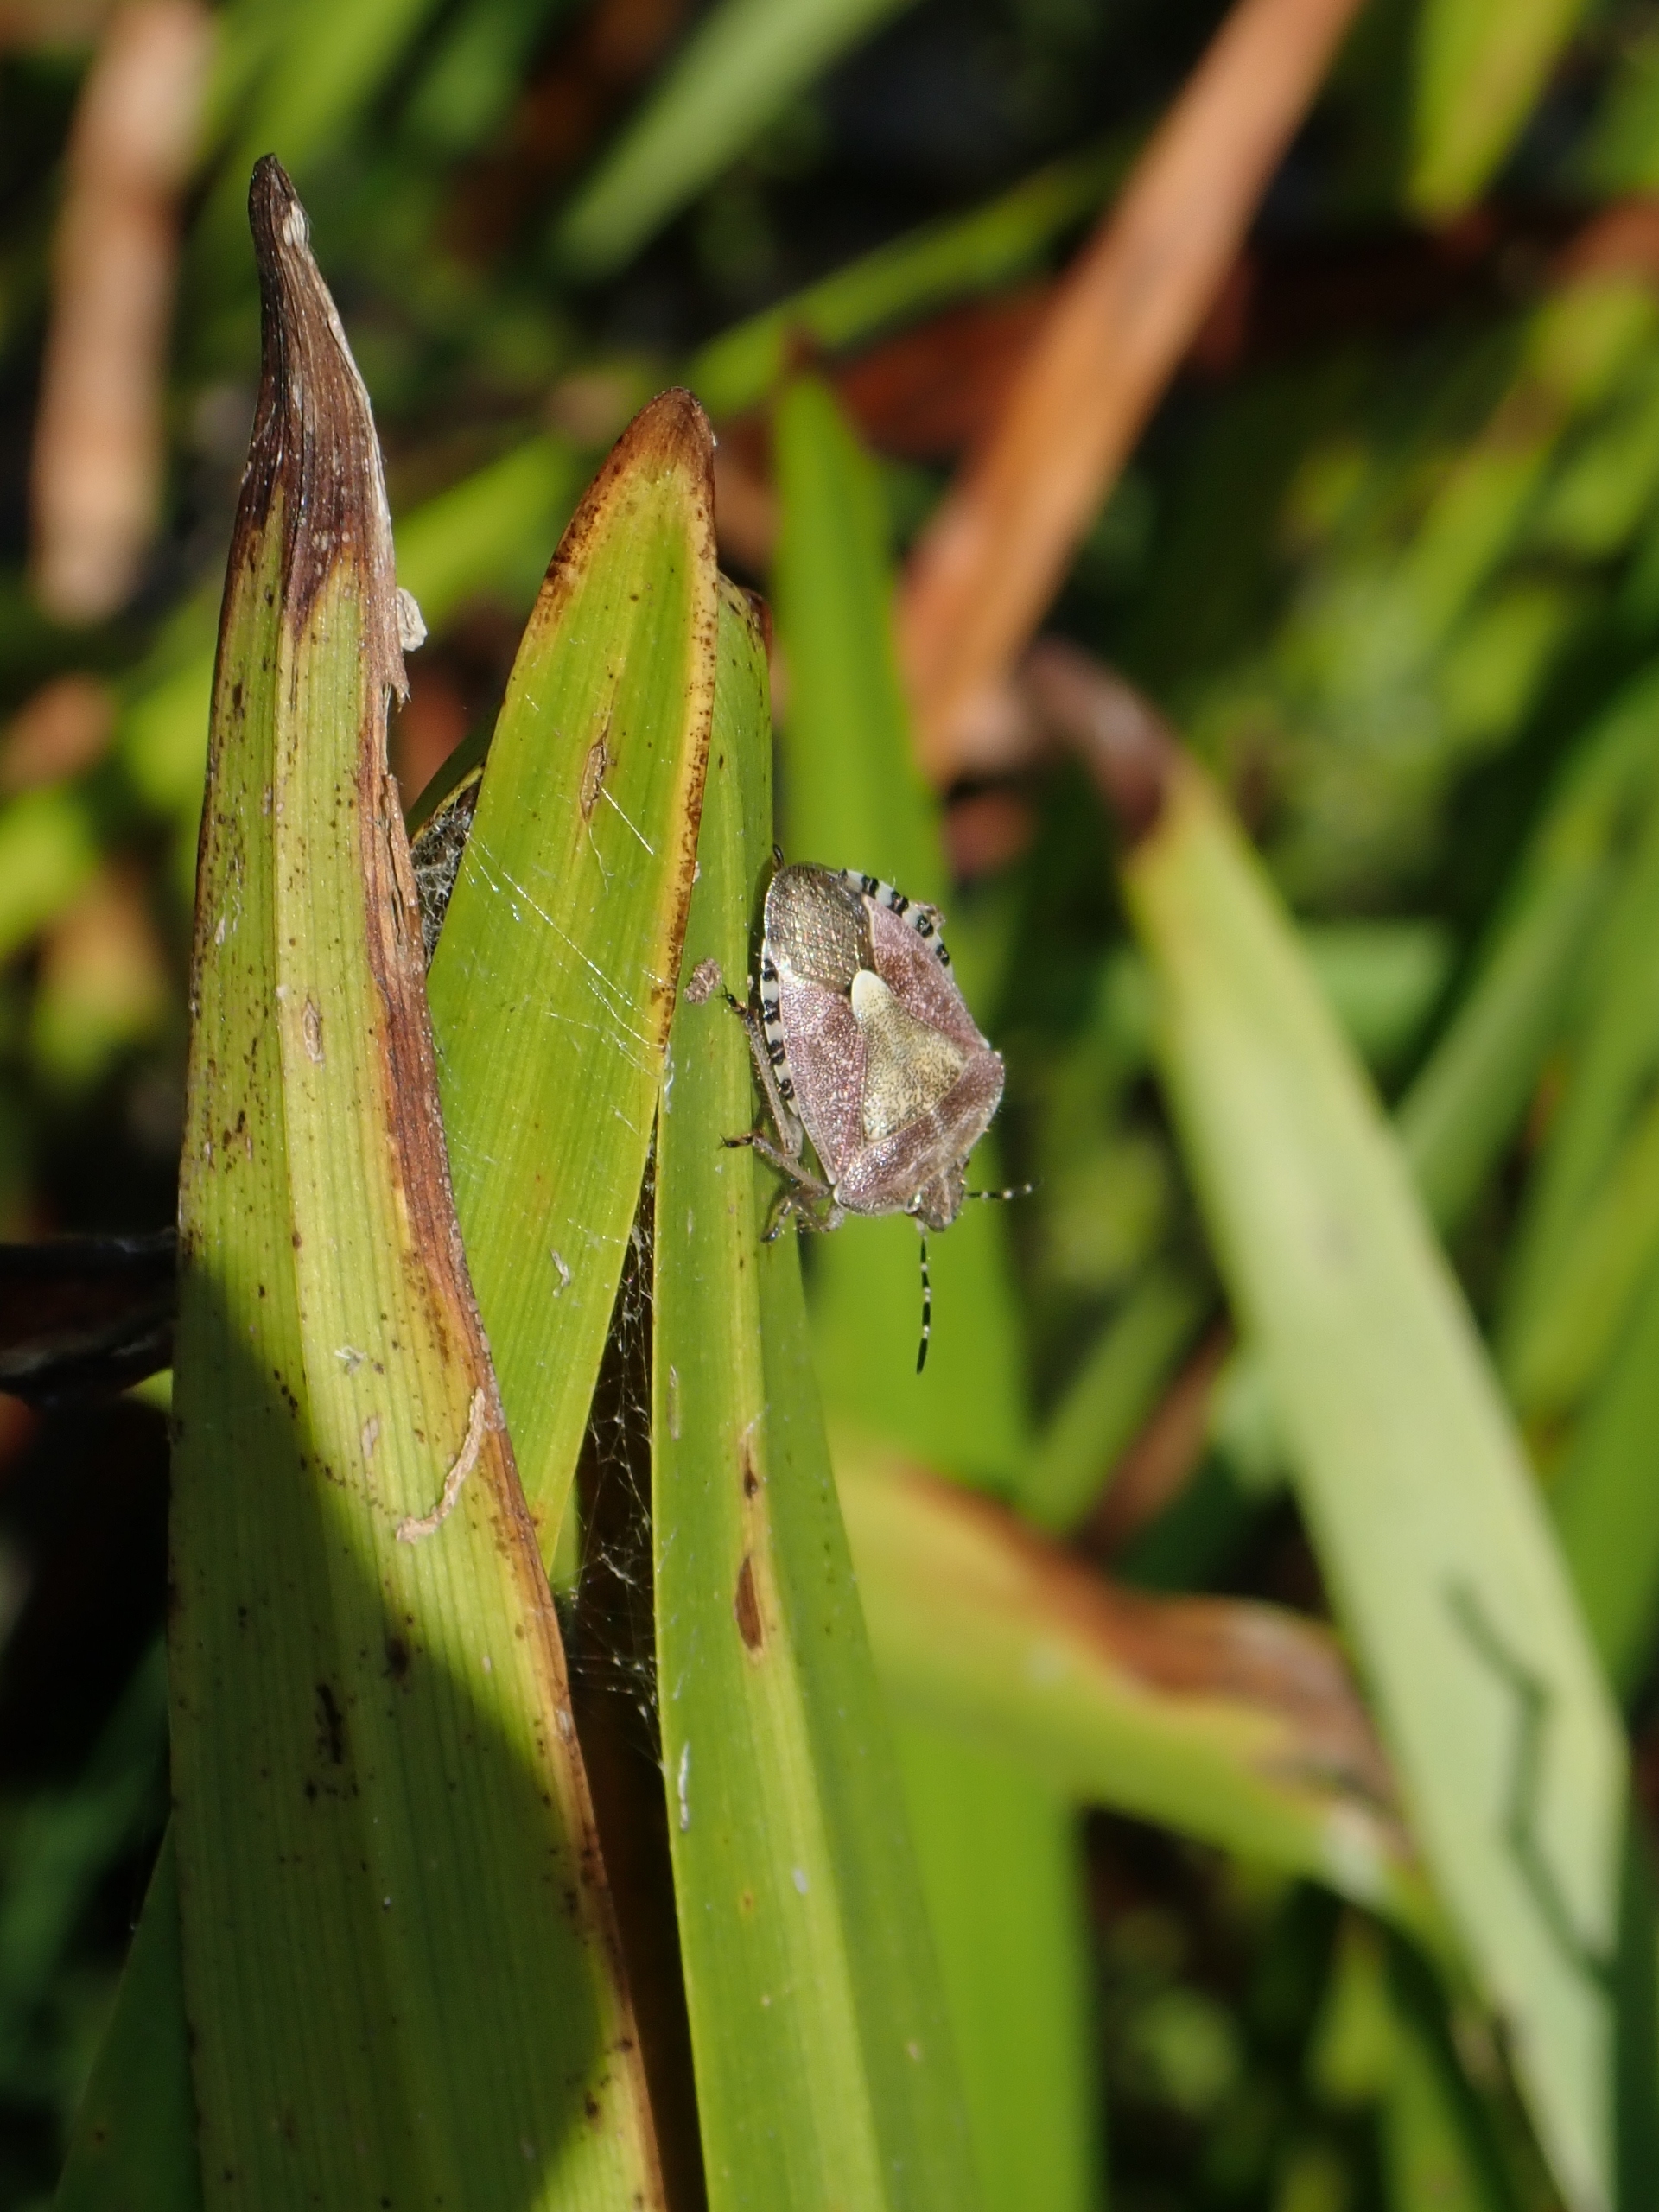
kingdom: Animalia
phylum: Arthropoda
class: Insecta
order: Hemiptera
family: Pentatomidae
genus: Dolycoris
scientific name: Dolycoris baccarum
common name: Almindelig bærtæge
